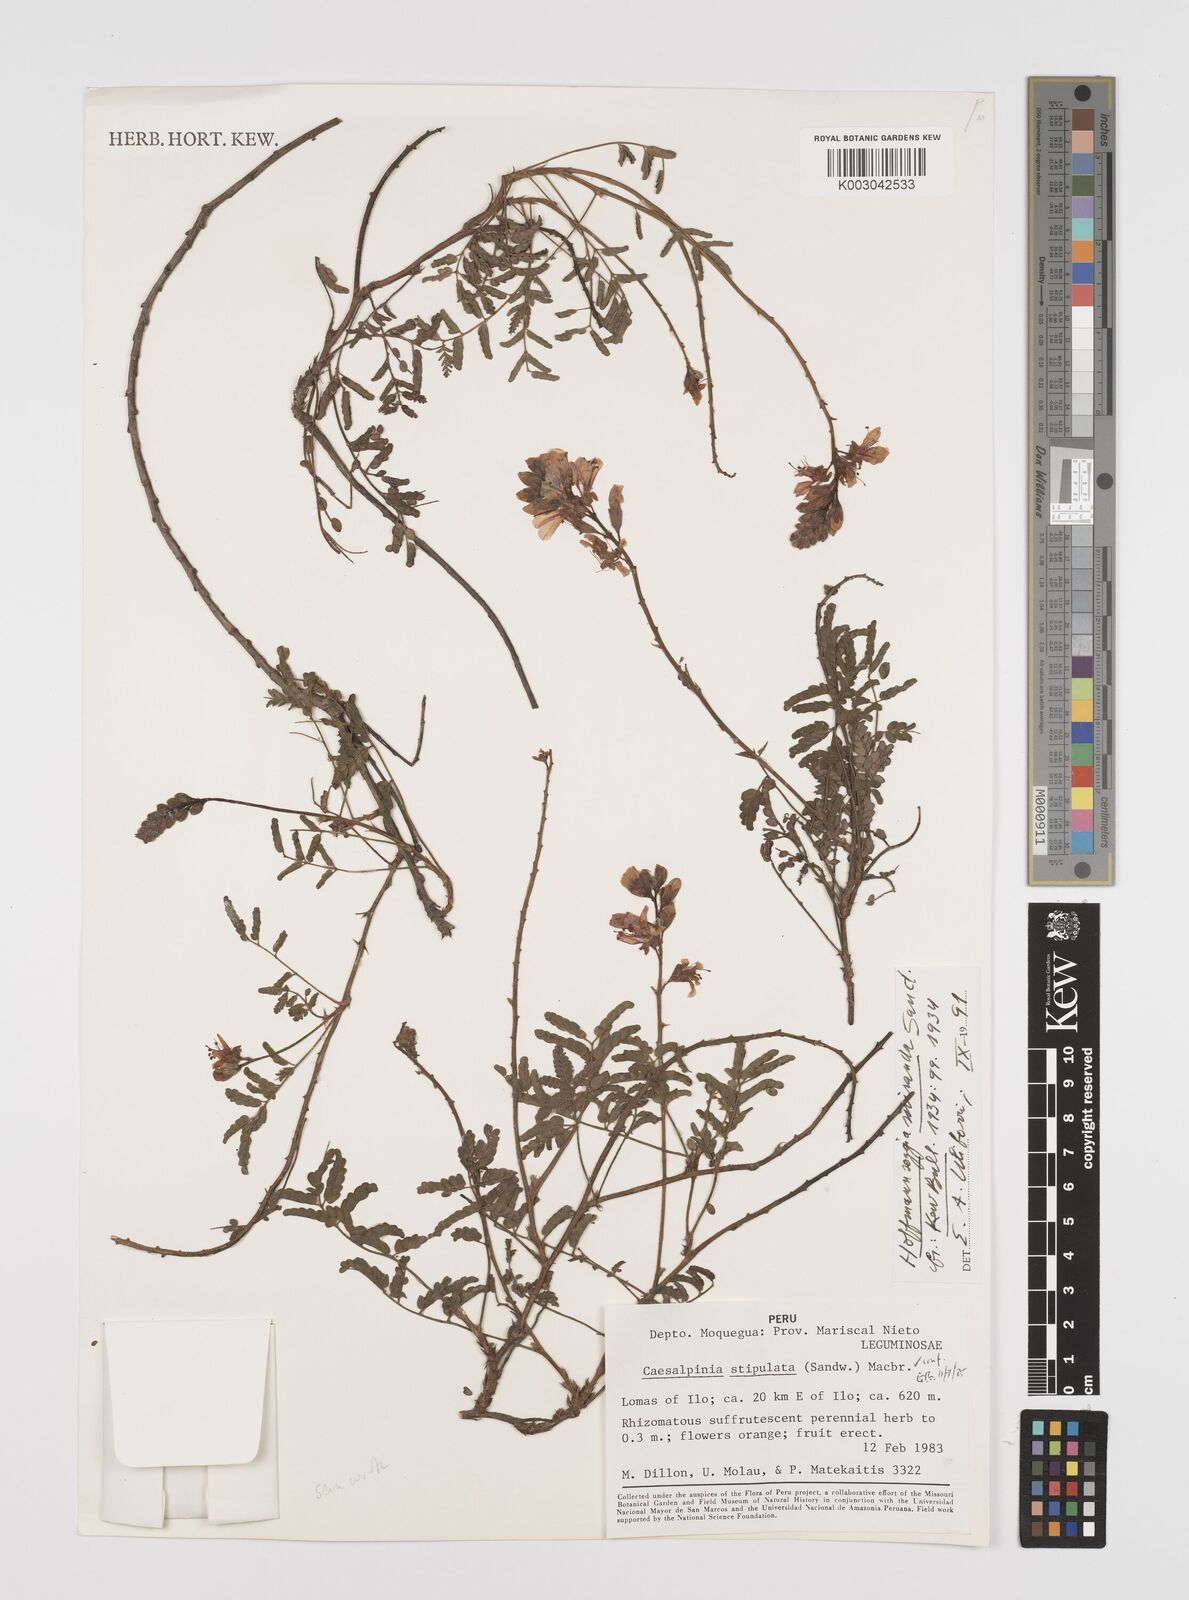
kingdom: Plantae
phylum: Tracheophyta
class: Magnoliopsida
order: Fabales
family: Fabaceae
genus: Hoffmannseggia
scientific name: Hoffmannseggia miranda
